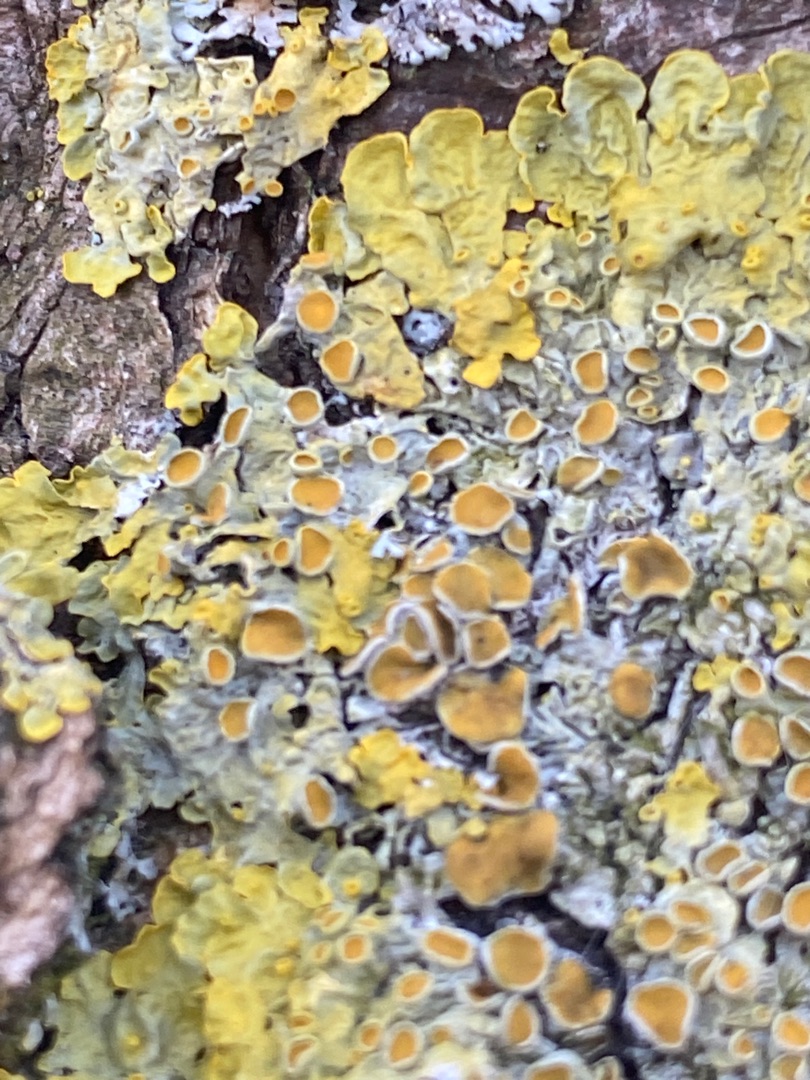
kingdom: Fungi
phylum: Ascomycota
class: Lecanoromycetes
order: Teloschistales
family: Teloschistaceae
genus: Xanthoria
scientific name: Xanthoria parietina
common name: Almindelig væggelav
